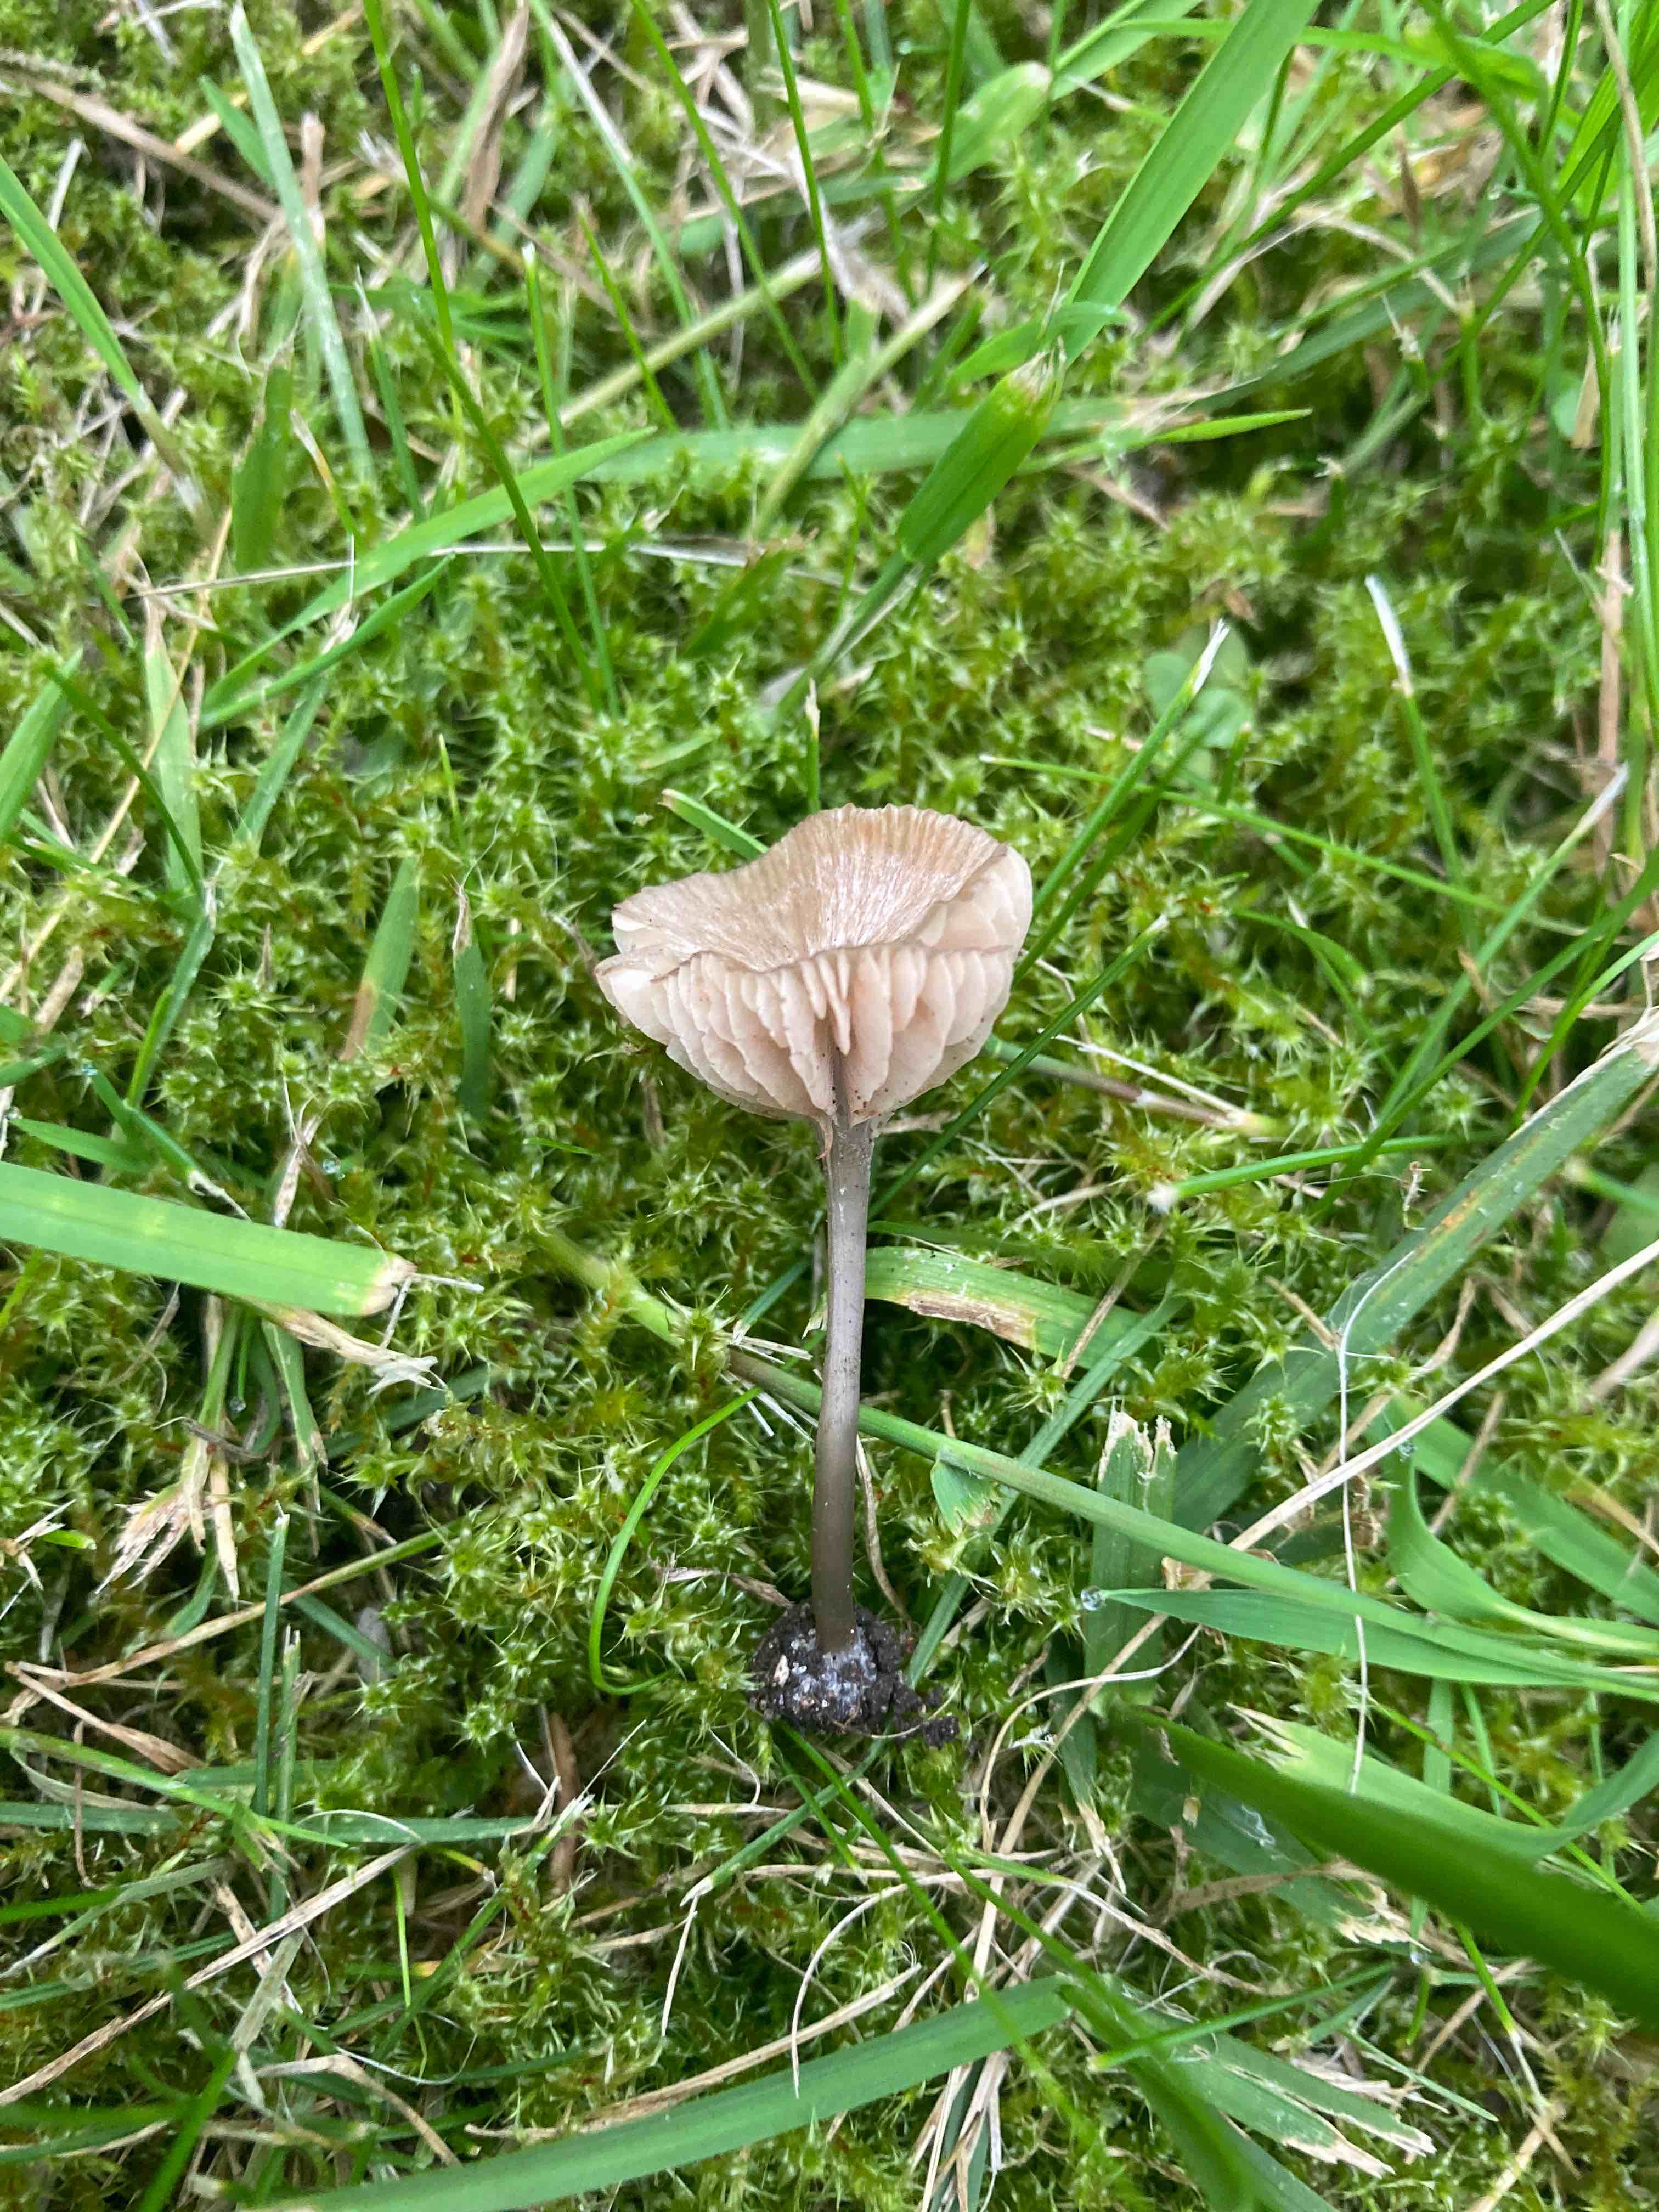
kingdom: Fungi
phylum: Basidiomycota
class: Agaricomycetes
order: Agaricales
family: Entolomataceae
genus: Entoloma
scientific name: Entoloma incarnatofuscescens
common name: tragt-rødblad
